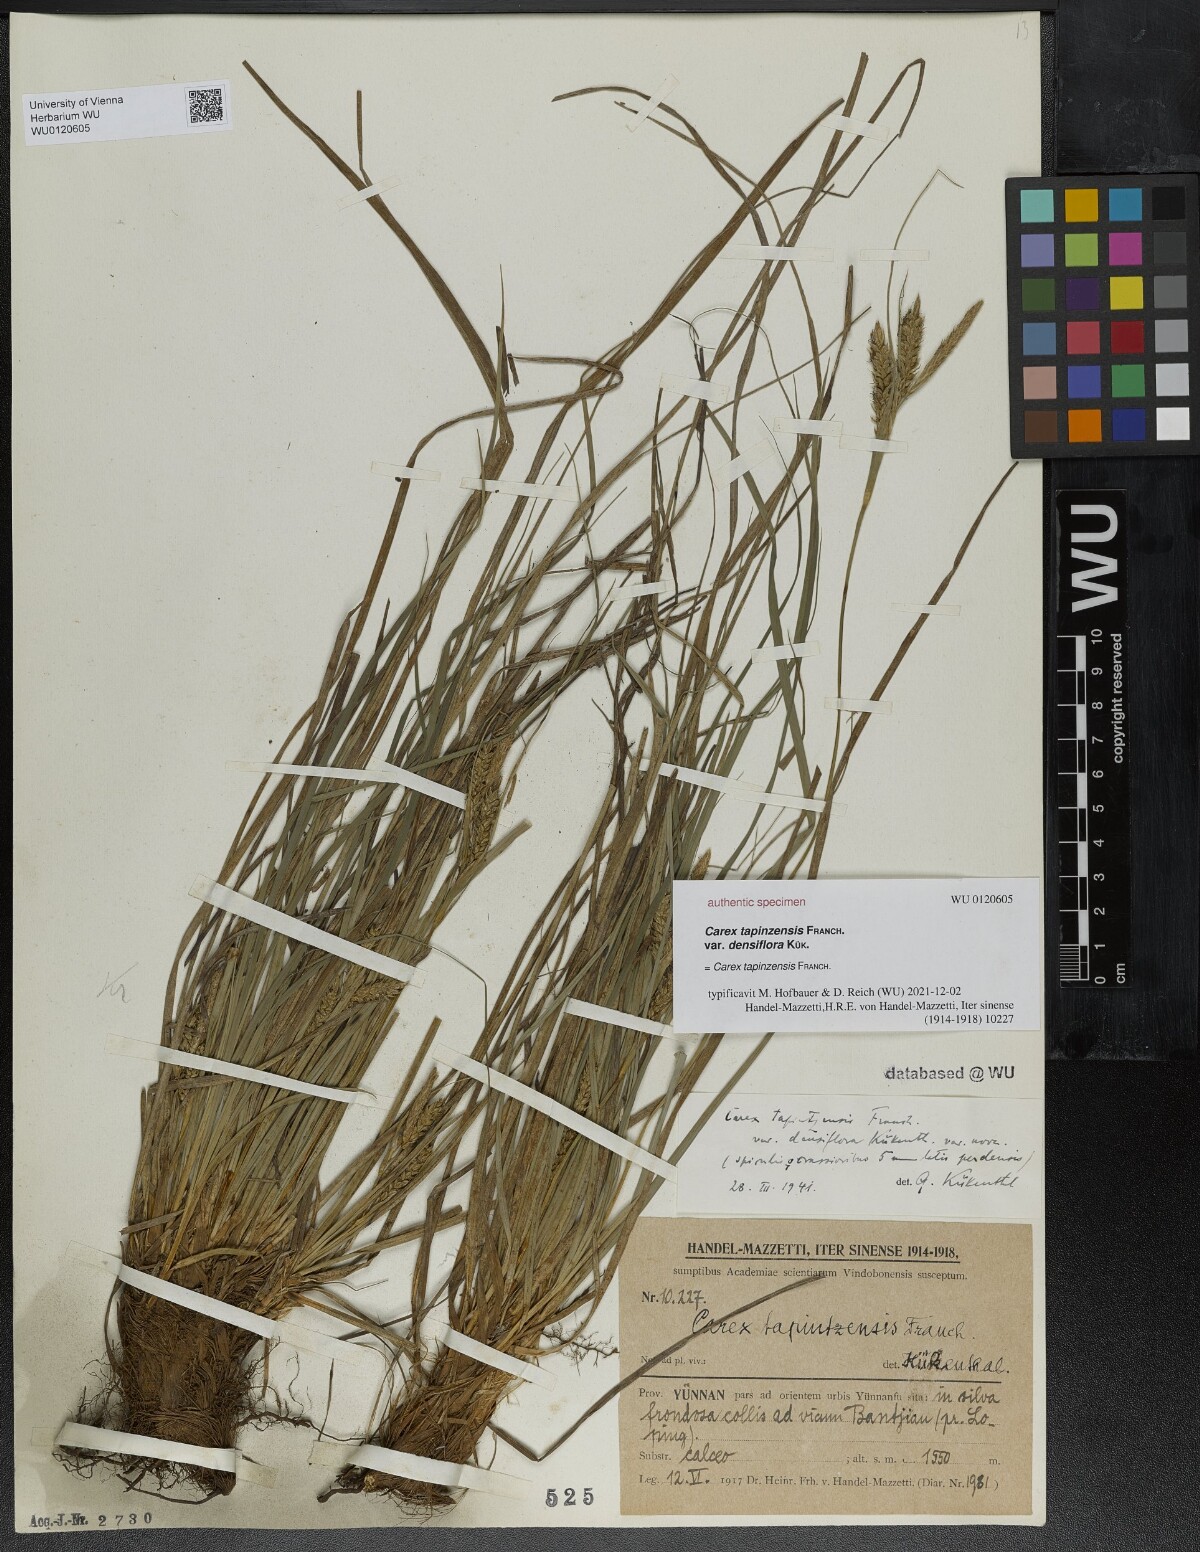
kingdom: Plantae
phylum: Tracheophyta
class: Liliopsida
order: Poales
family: Cyperaceae
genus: Carex
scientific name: Carex tapinzensis
